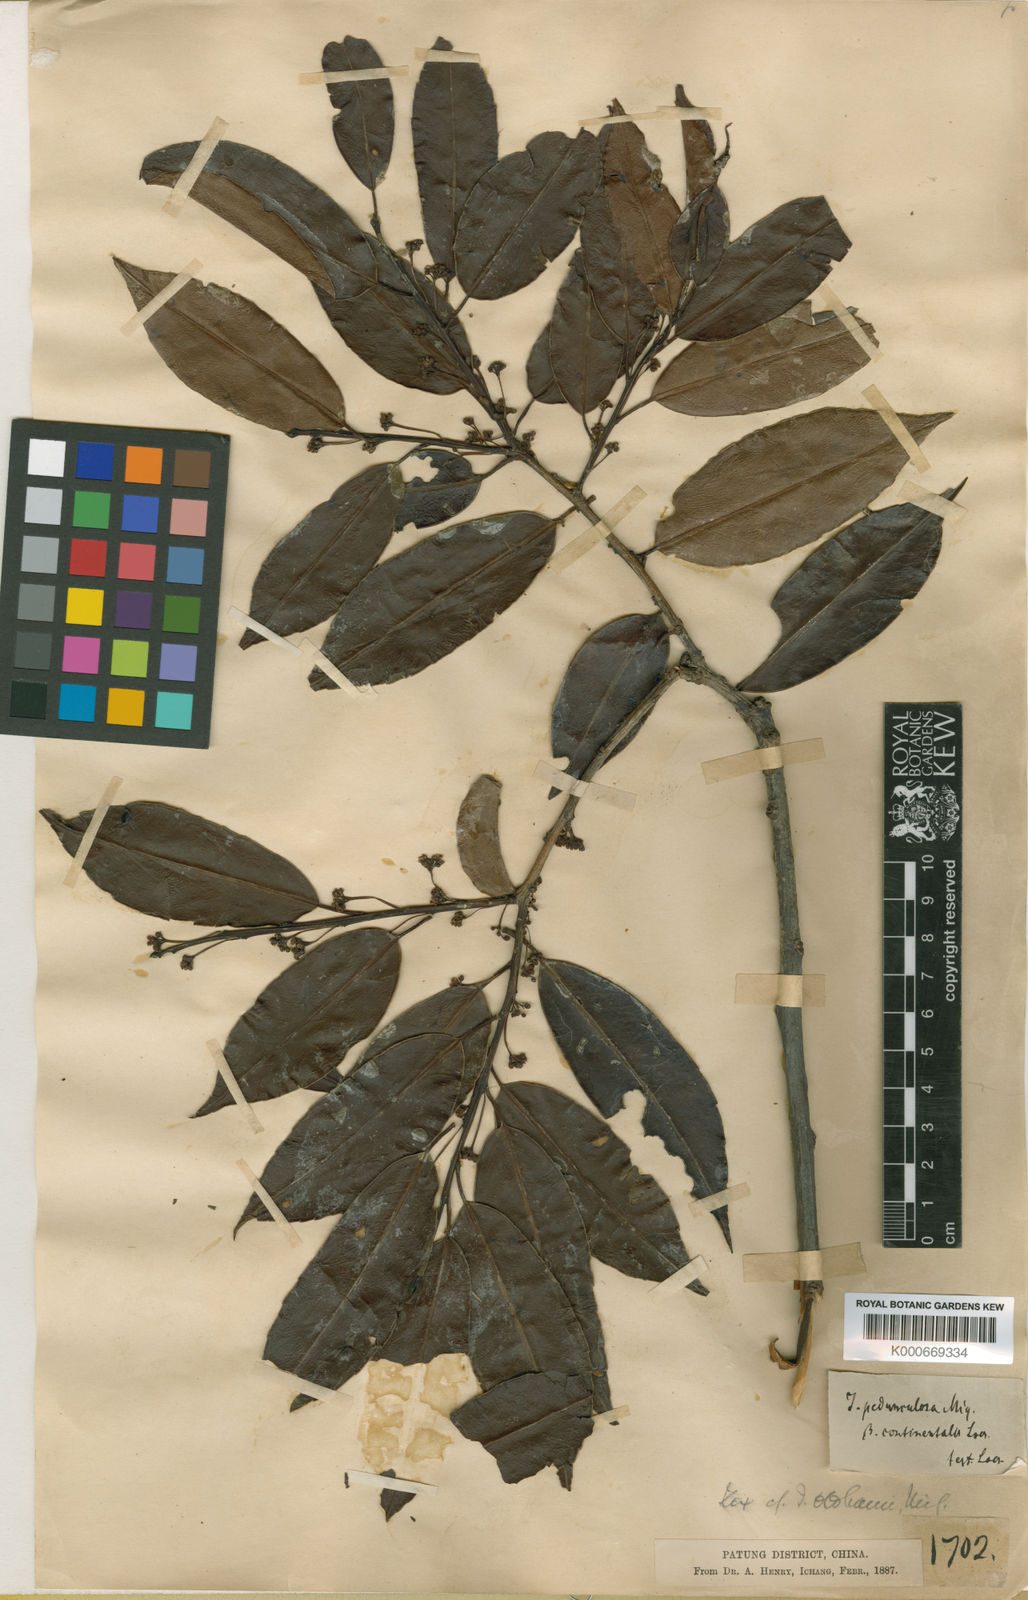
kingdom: Plantae
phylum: Tracheophyta
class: Magnoliopsida
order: Aquifoliales
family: Aquifoliaceae
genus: Ilex
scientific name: Ilex pedunculosa
